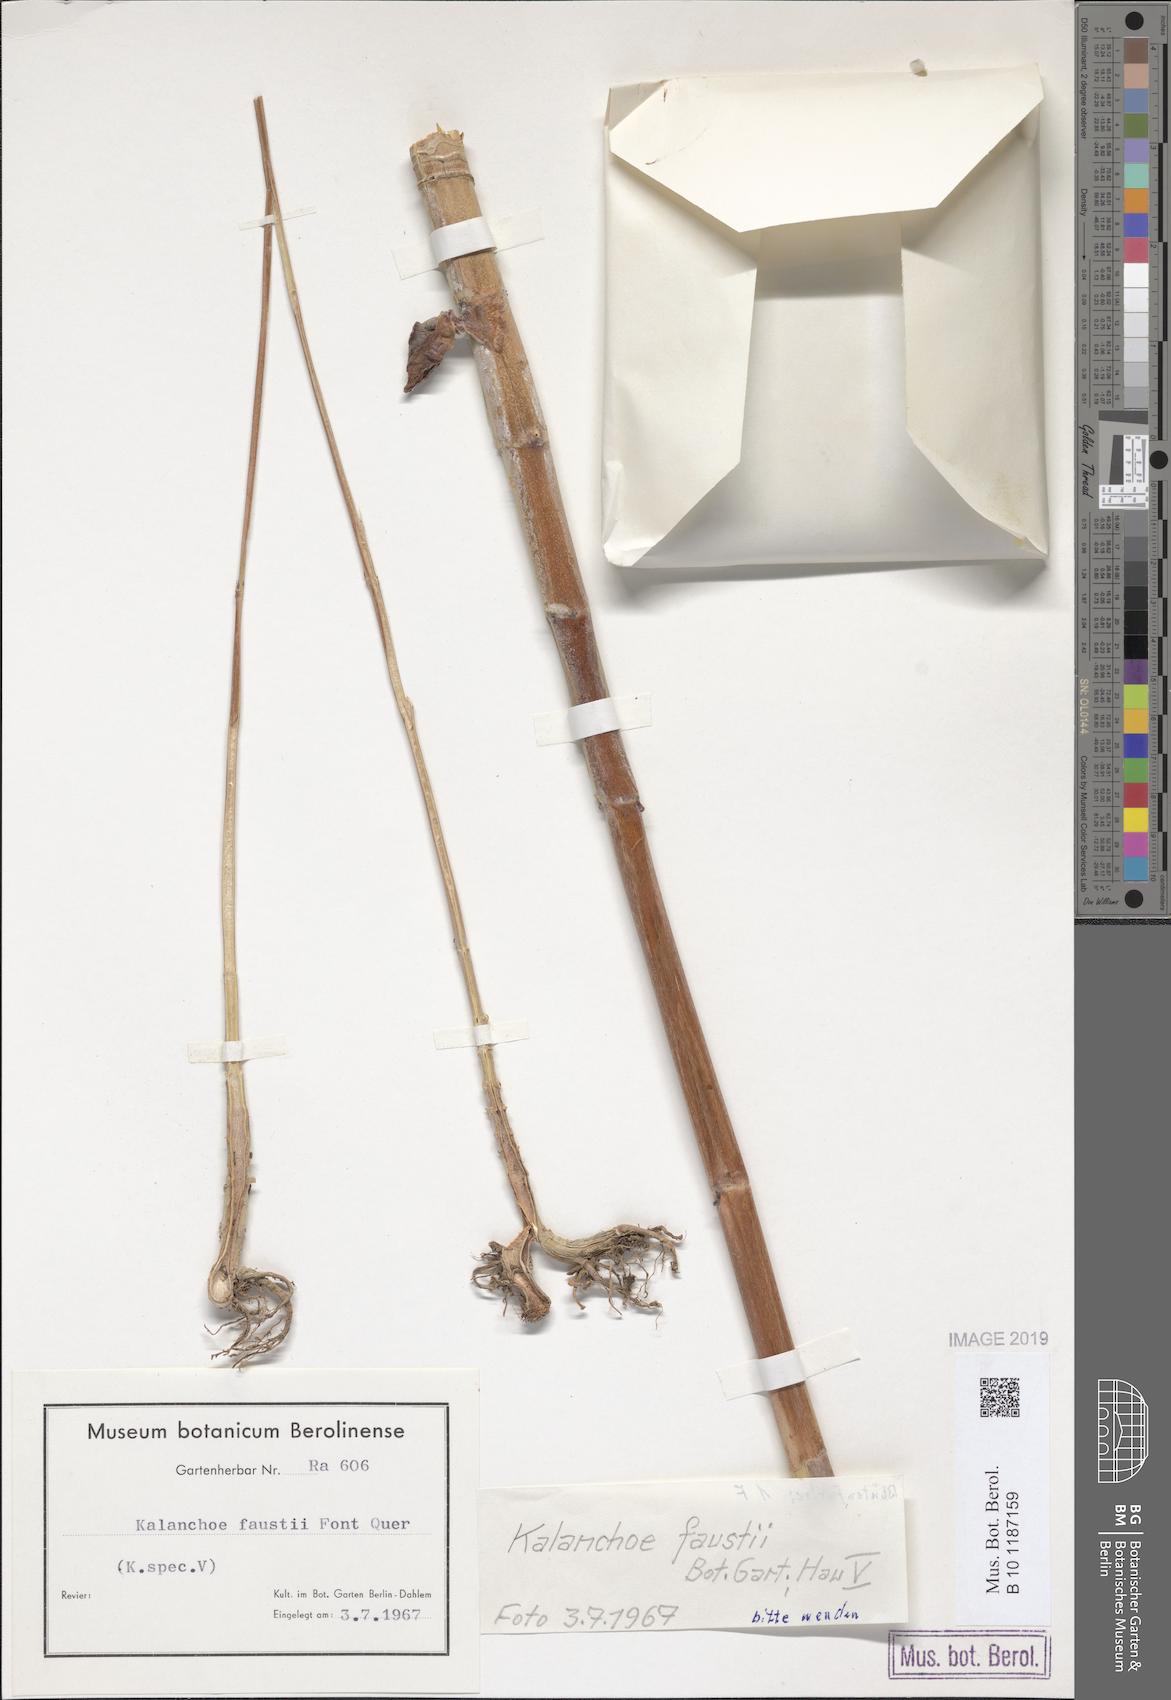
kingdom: Plantae
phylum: Tracheophyta
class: Magnoliopsida
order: Saxifragales
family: Crassulaceae
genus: Kalanchoe
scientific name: Kalanchoe faustii
